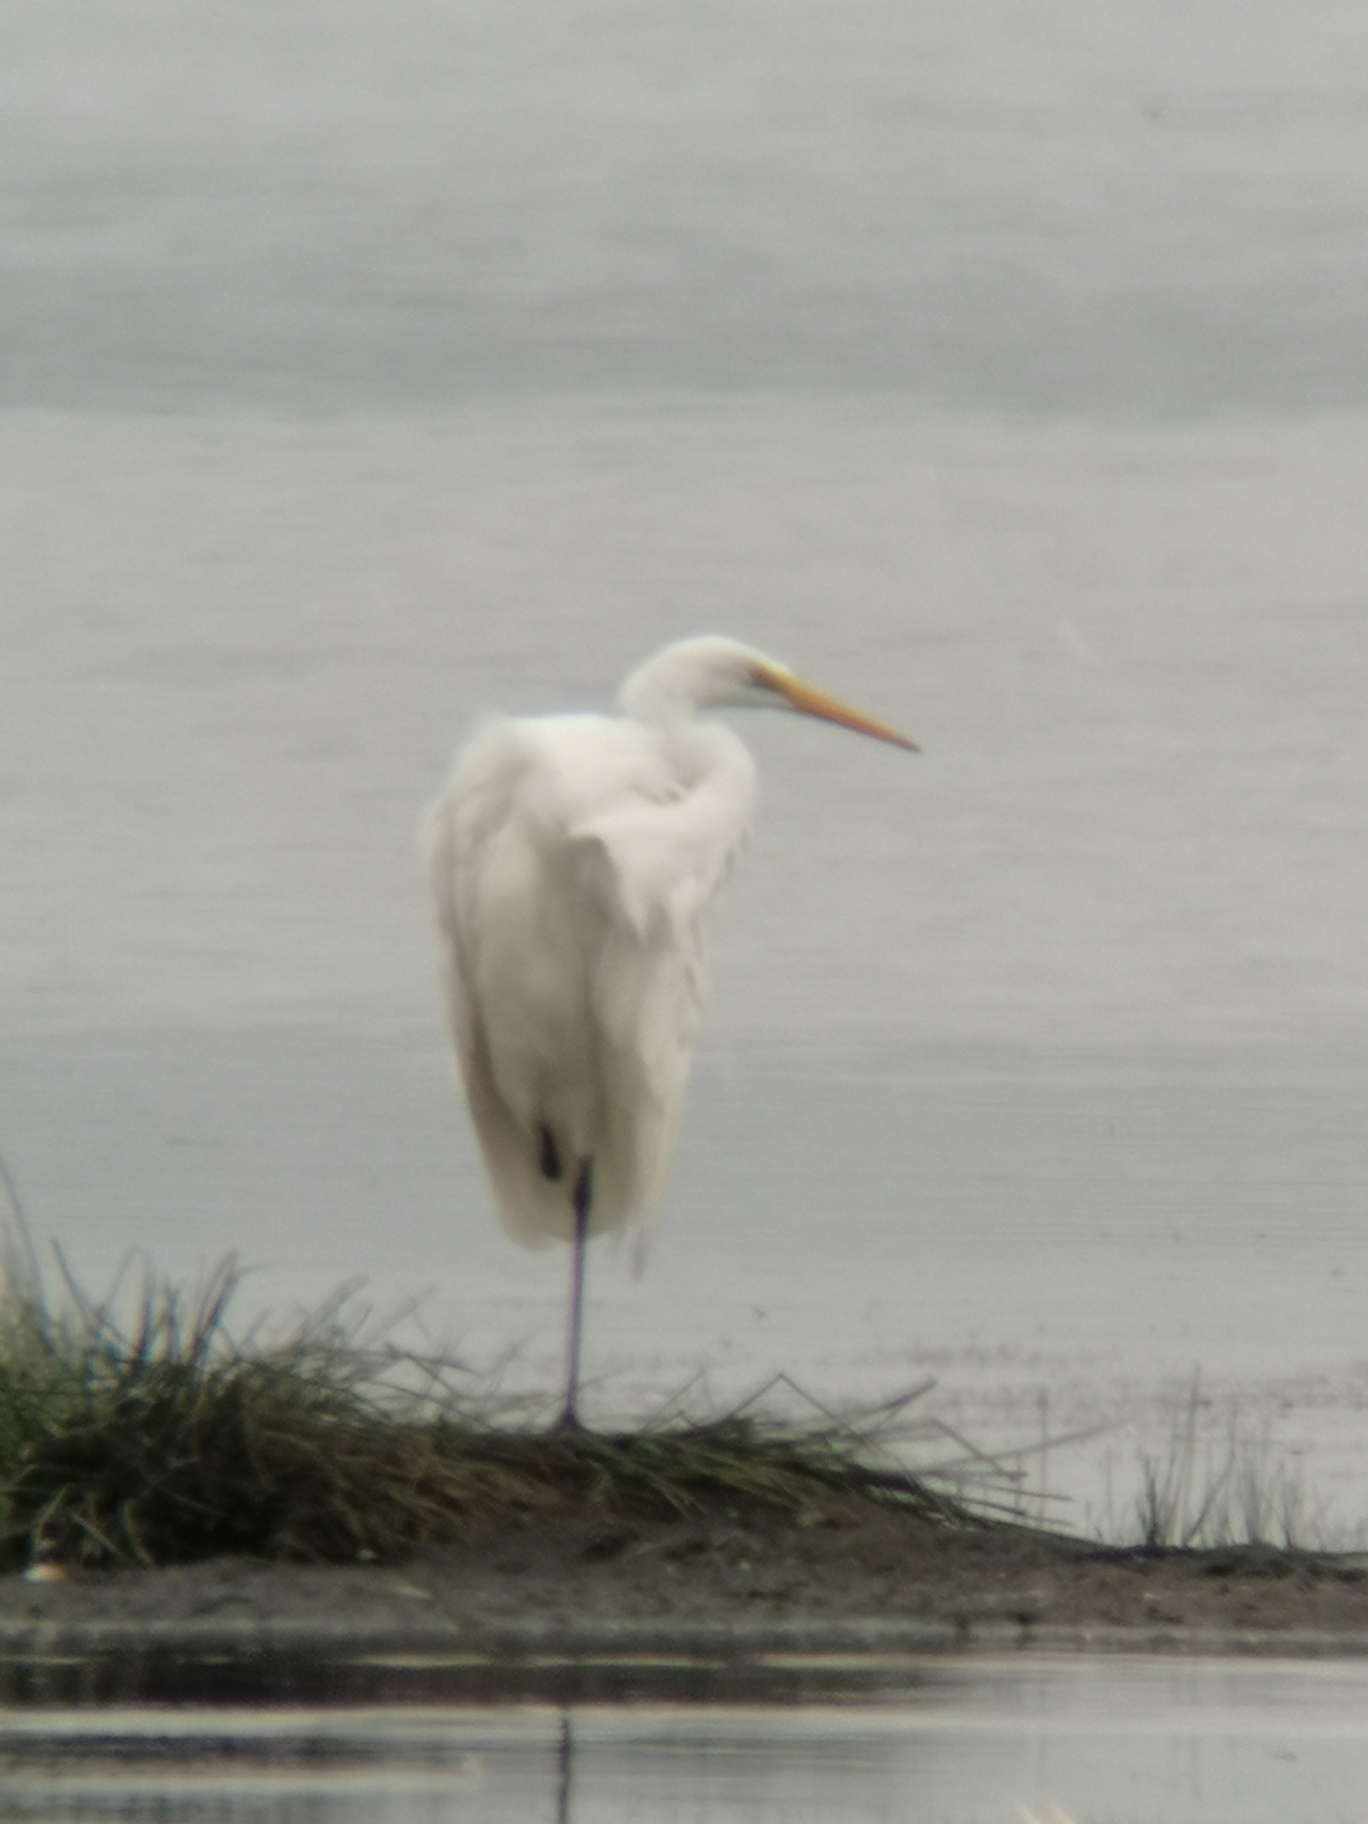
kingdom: Animalia
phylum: Chordata
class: Aves
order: Pelecaniformes
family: Ardeidae
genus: Ardea
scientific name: Ardea alba
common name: Sølvhejre
